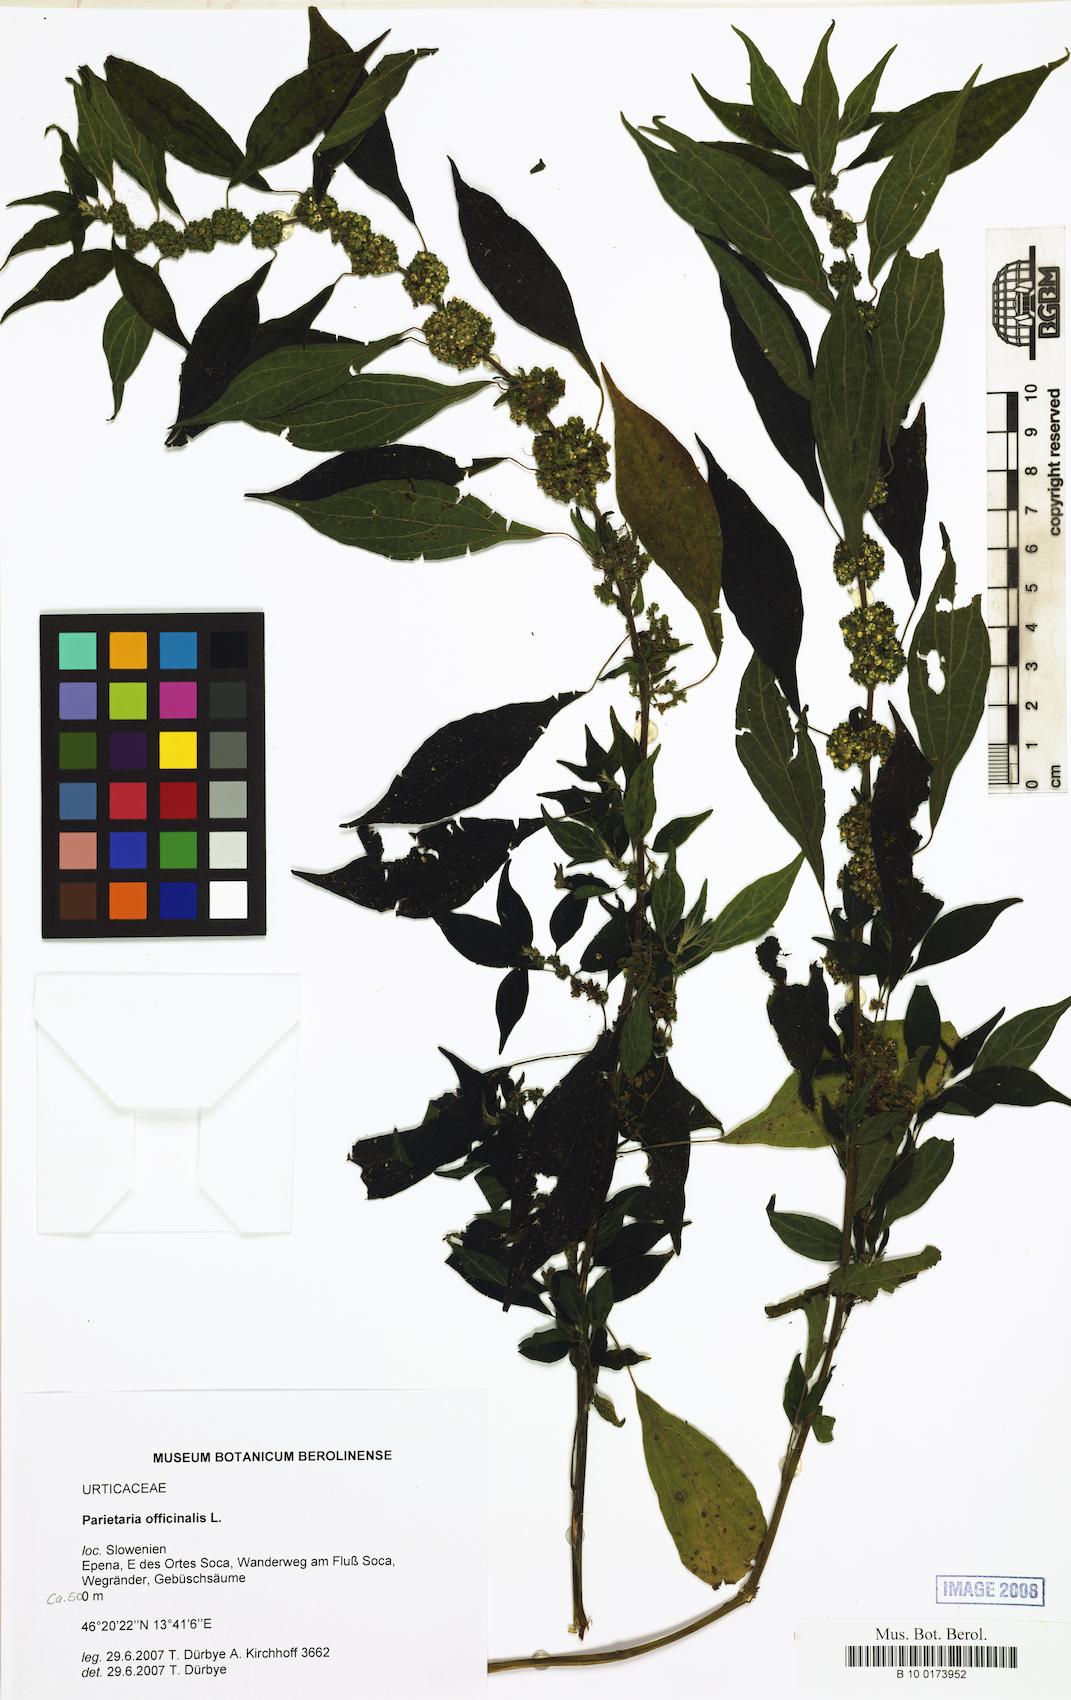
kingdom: Plantae
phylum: Tracheophyta
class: Magnoliopsida
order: Rosales
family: Urticaceae
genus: Parietaria
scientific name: Parietaria officinalis
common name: Eastern pellitory-of-the-wall
